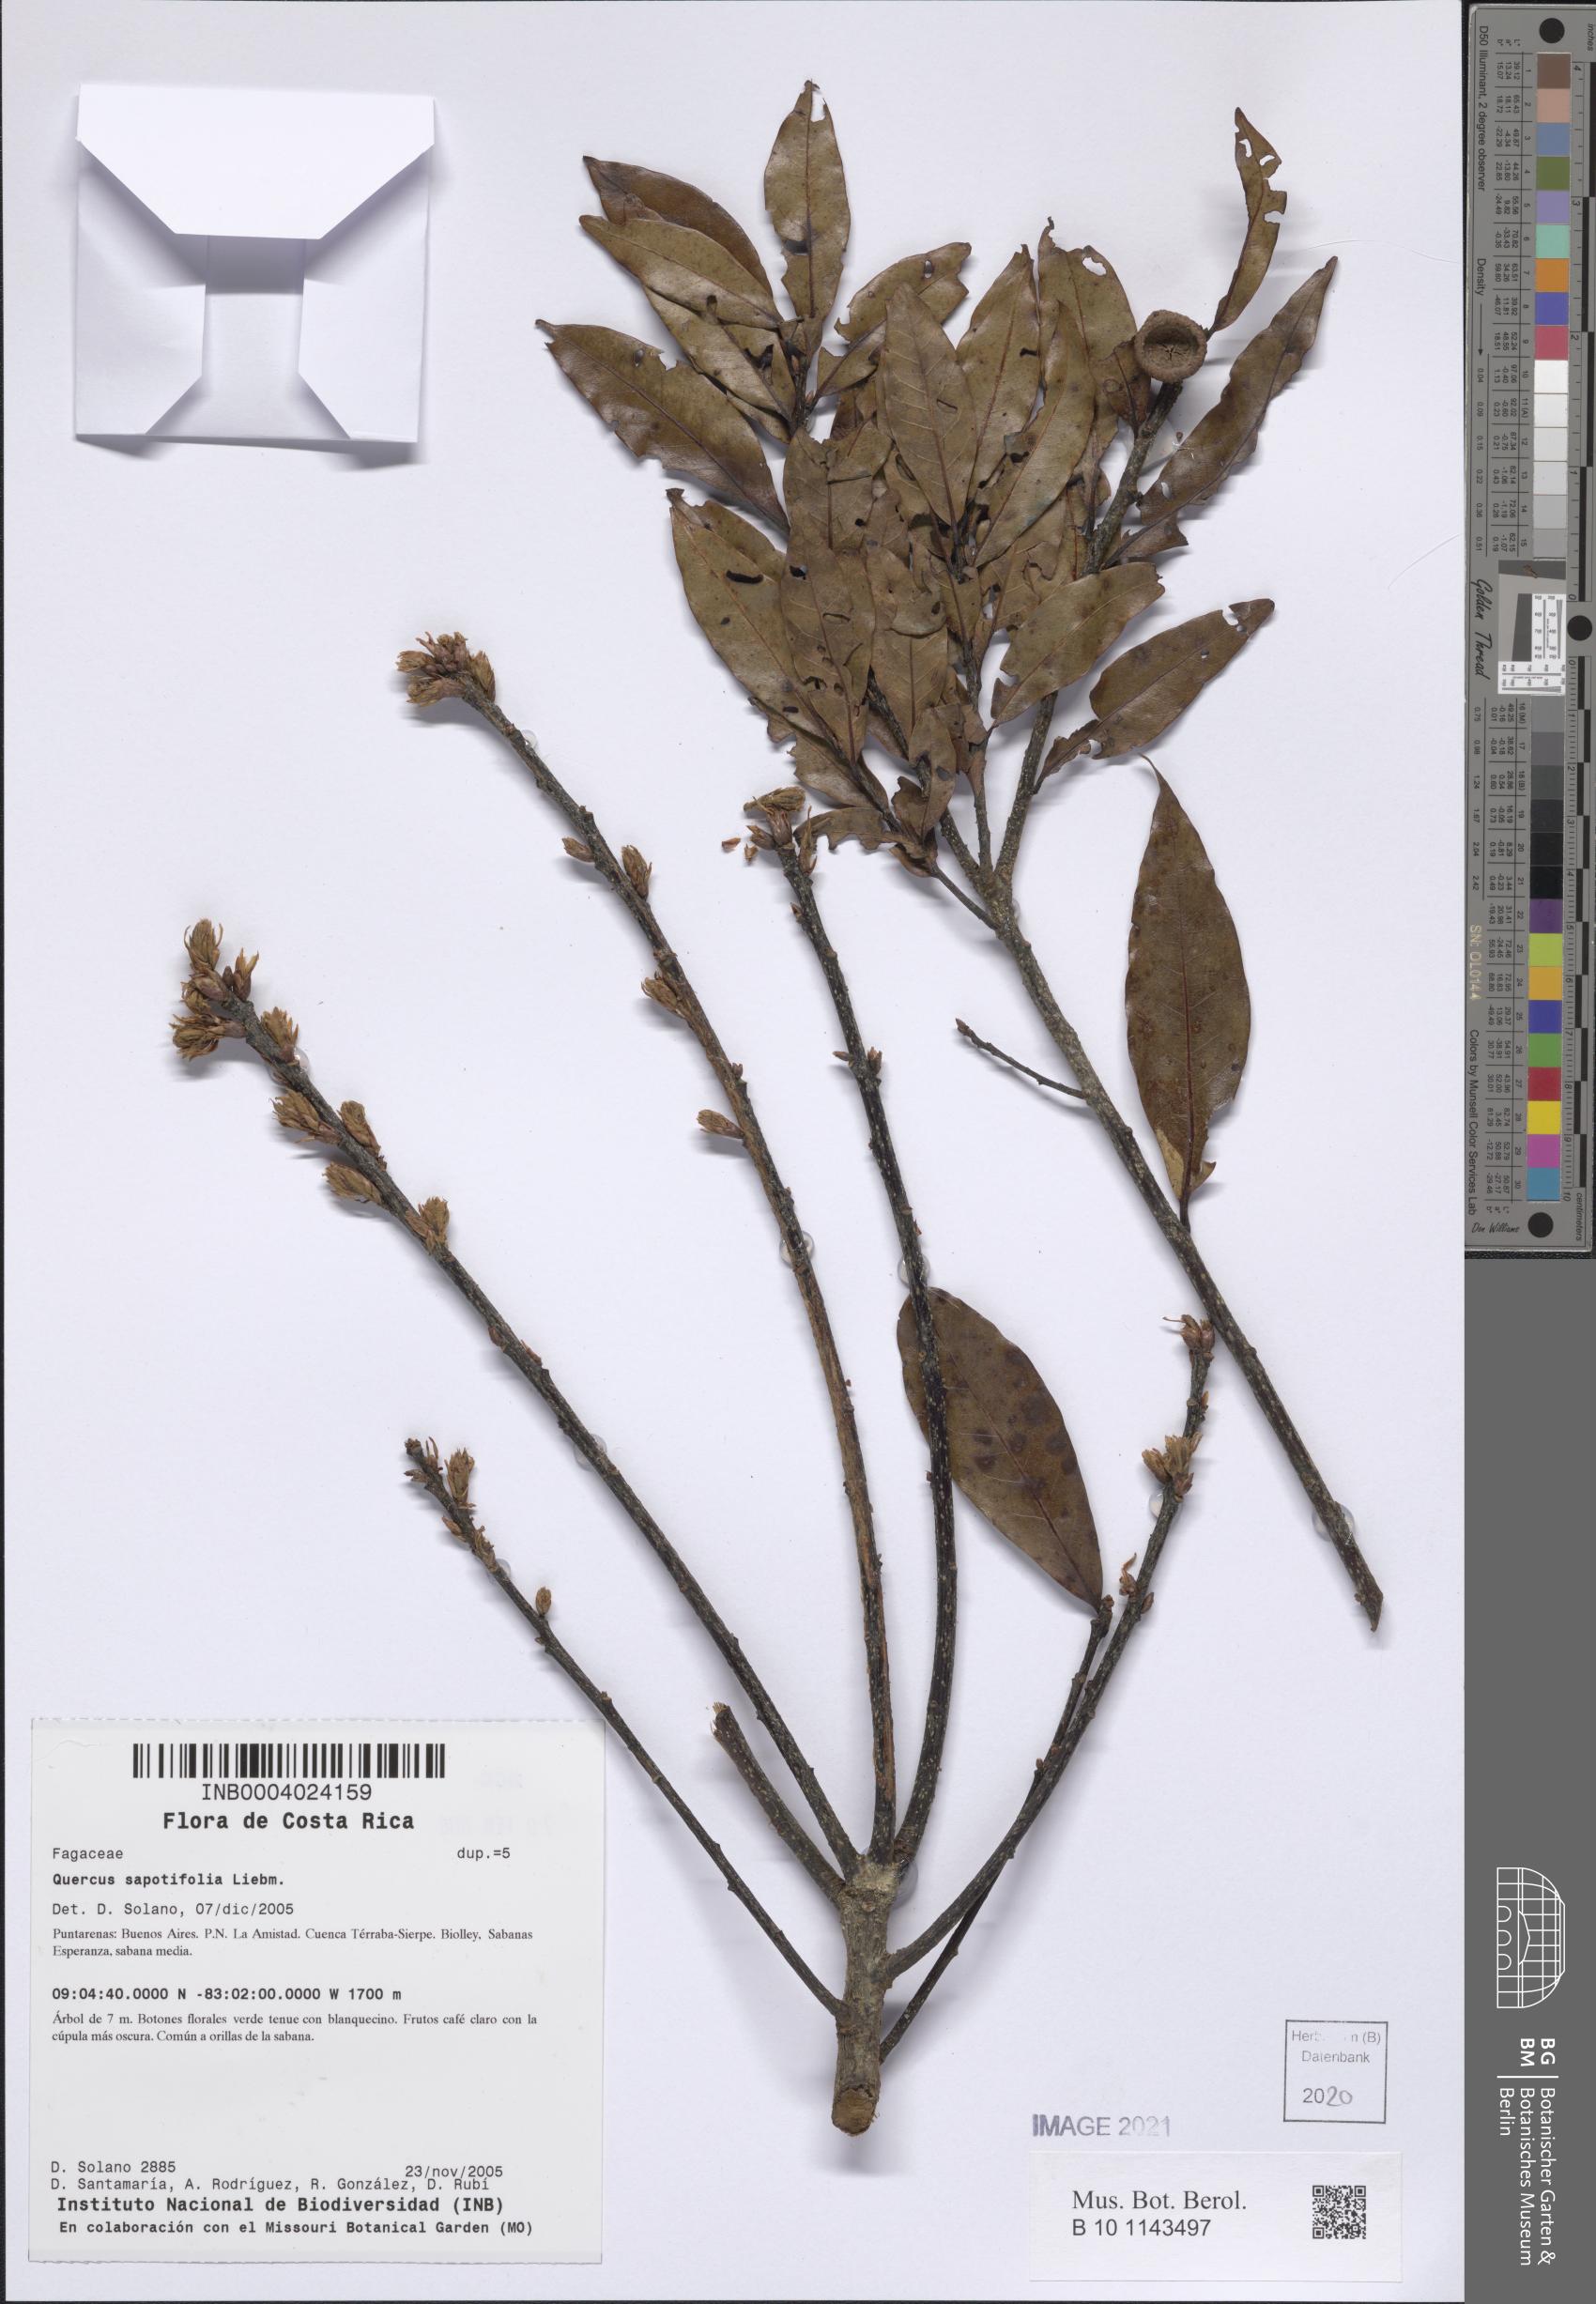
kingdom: Plantae
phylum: Tracheophyta
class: Magnoliopsida
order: Fagales
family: Fagaceae
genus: Quercus
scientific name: Quercus sapotifolia
